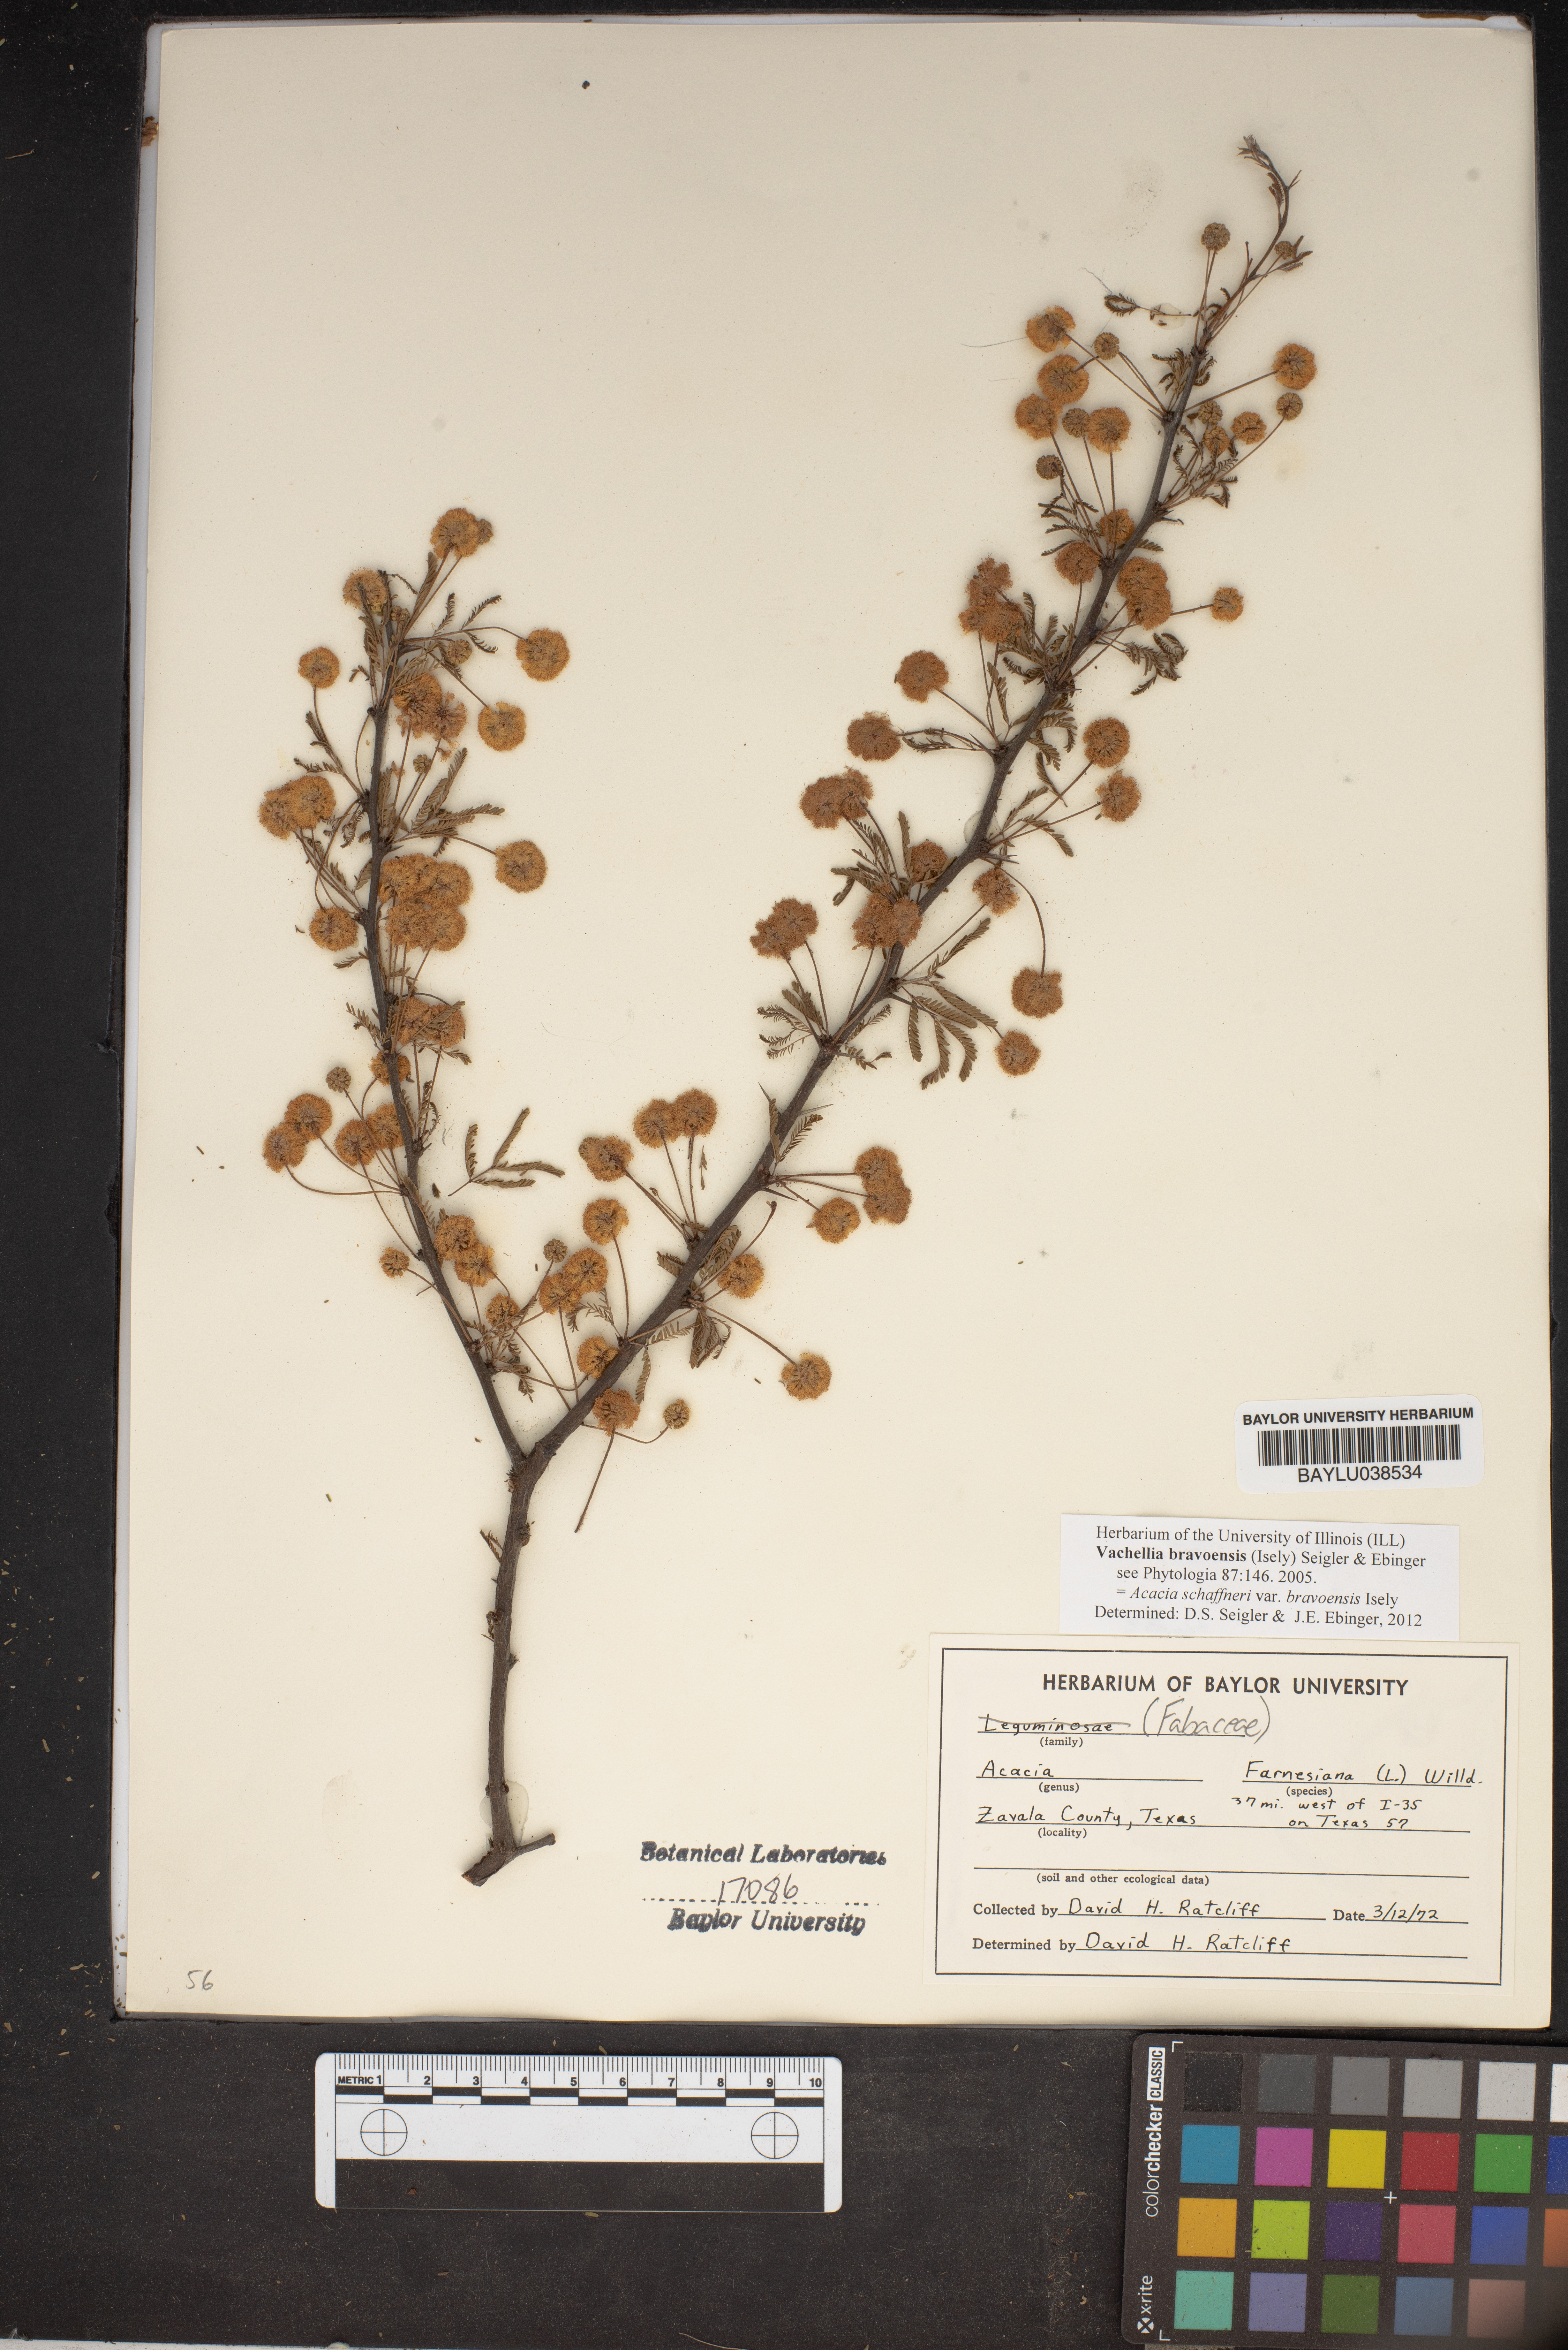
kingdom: Plantae
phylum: Tracheophyta
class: Magnoliopsida
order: Fabales
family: Fabaceae
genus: Vachellia
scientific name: Vachellia farnesiana
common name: Sweet acacia
